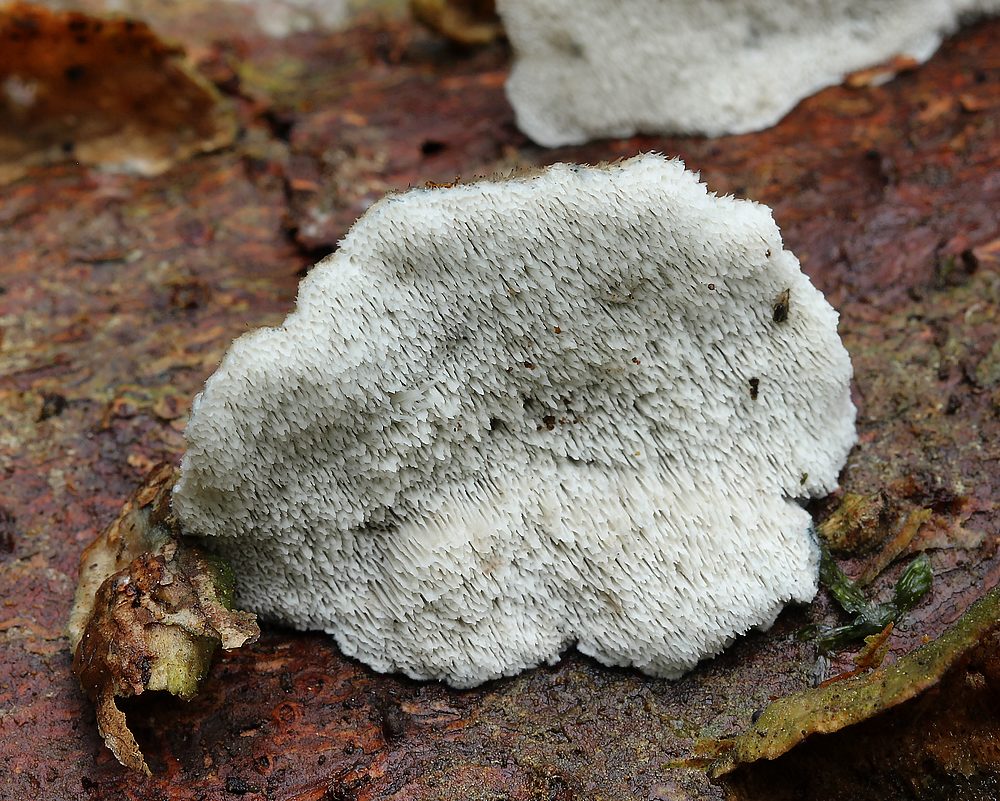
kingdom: Fungi
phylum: Basidiomycota
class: Agaricomycetes
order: Polyporales
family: Polyporaceae
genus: Cyanosporus
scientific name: Cyanosporus caesius
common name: blålig kødporesvamp
